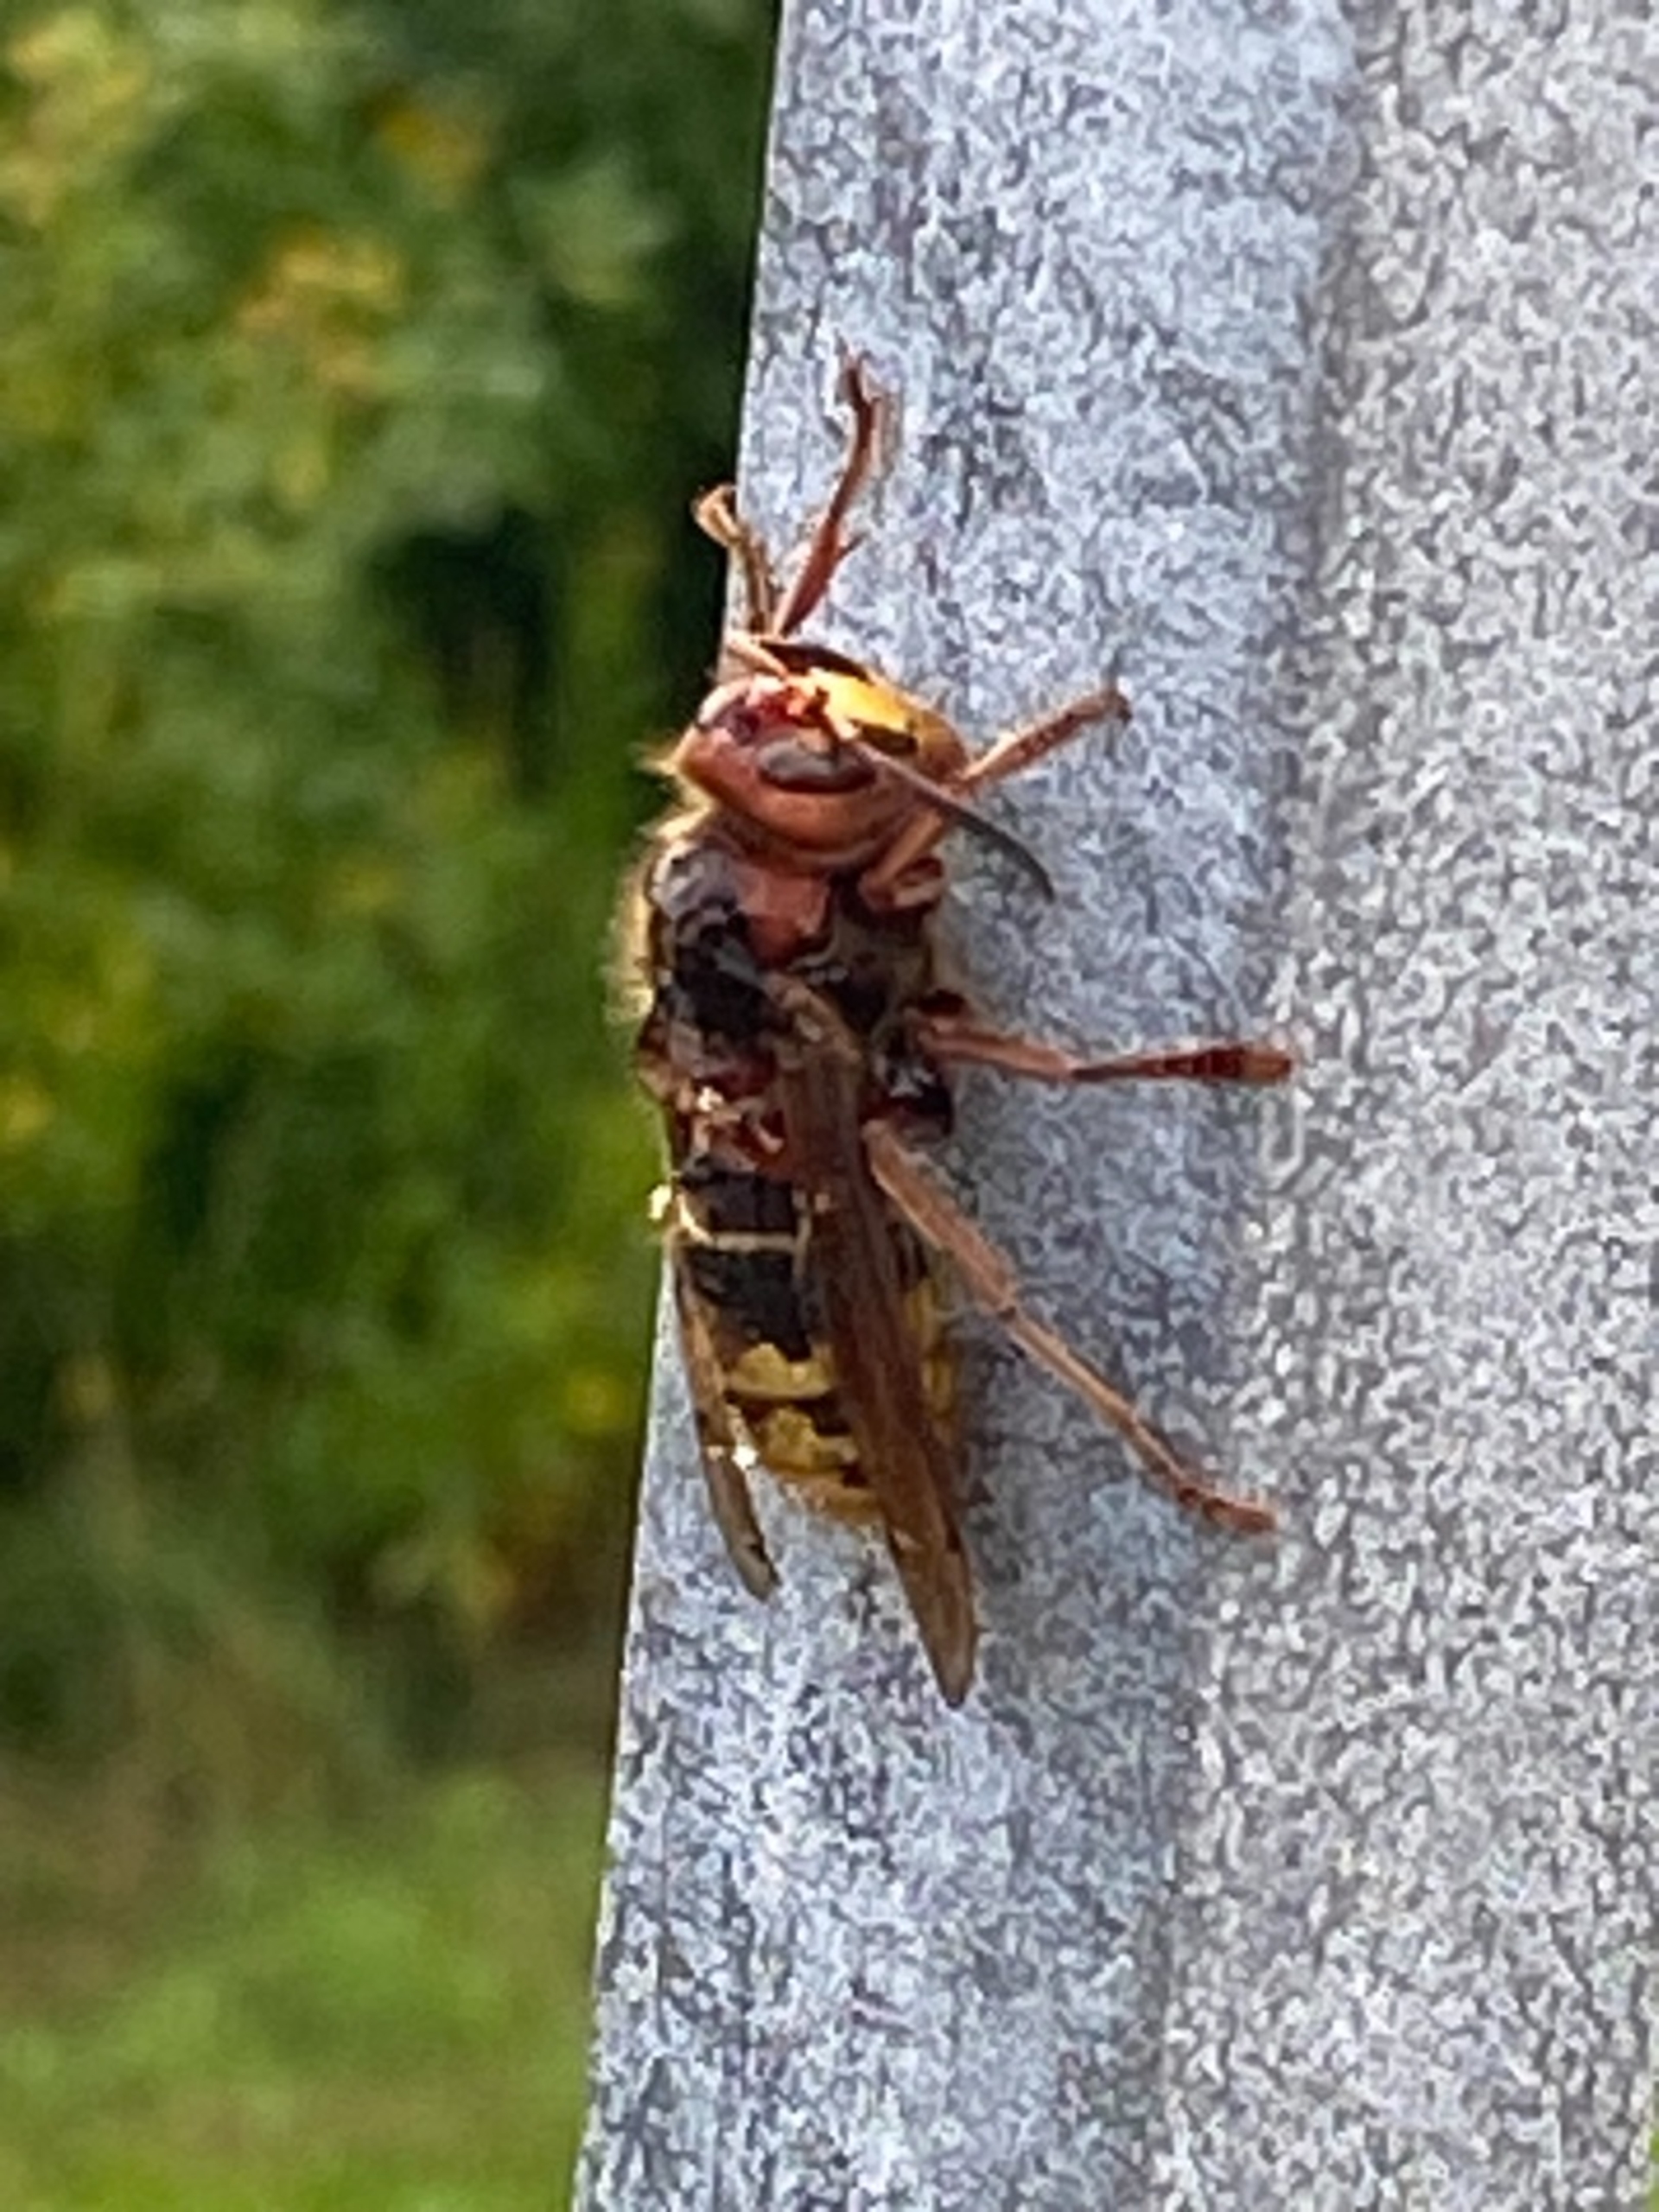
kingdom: Animalia
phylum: Arthropoda
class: Insecta
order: Hymenoptera
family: Vespidae
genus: Vespa
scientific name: Vespa crabro
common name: Stor gedehams
